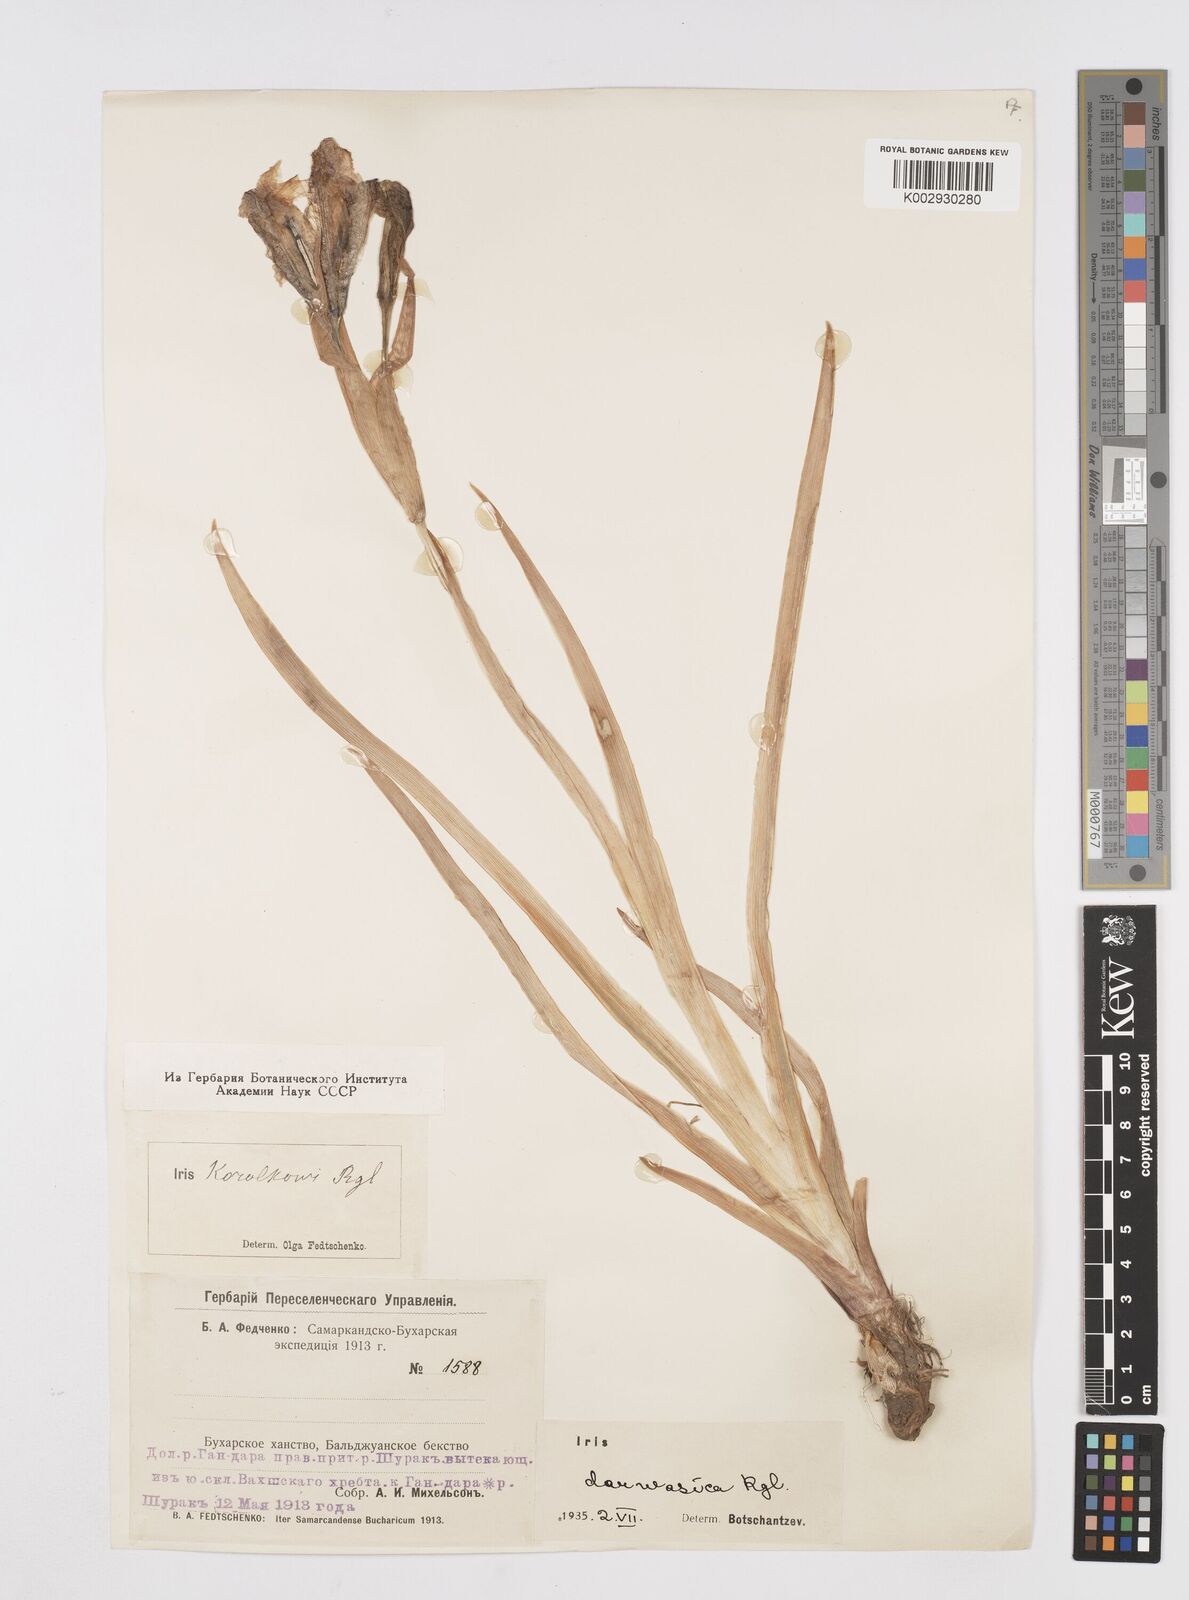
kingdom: Plantae
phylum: Tracheophyta
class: Liliopsida
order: Asparagales
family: Iridaceae
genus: Iris
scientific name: Iris korolkowii
